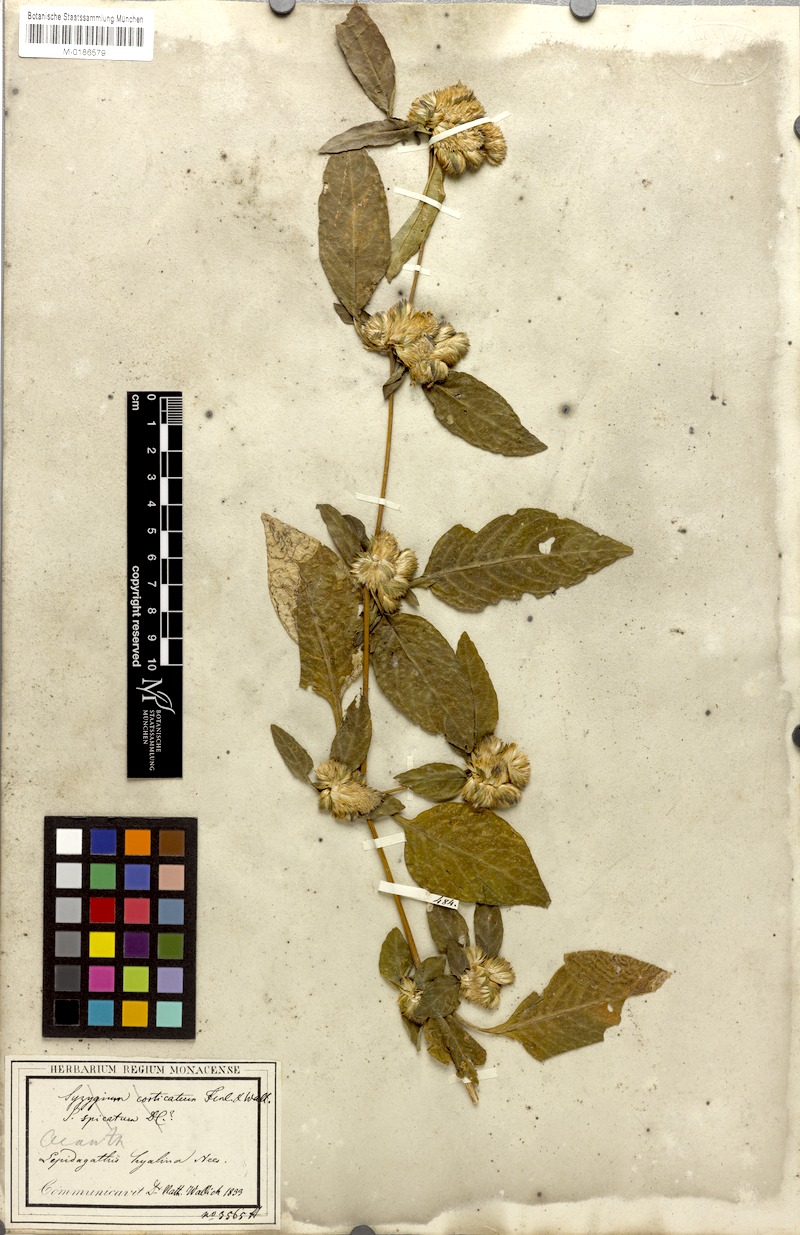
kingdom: Plantae
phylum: Tracheophyta
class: Magnoliopsida
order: Lamiales
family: Acanthaceae
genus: Lepidagathis
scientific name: Lepidagathis incurva
